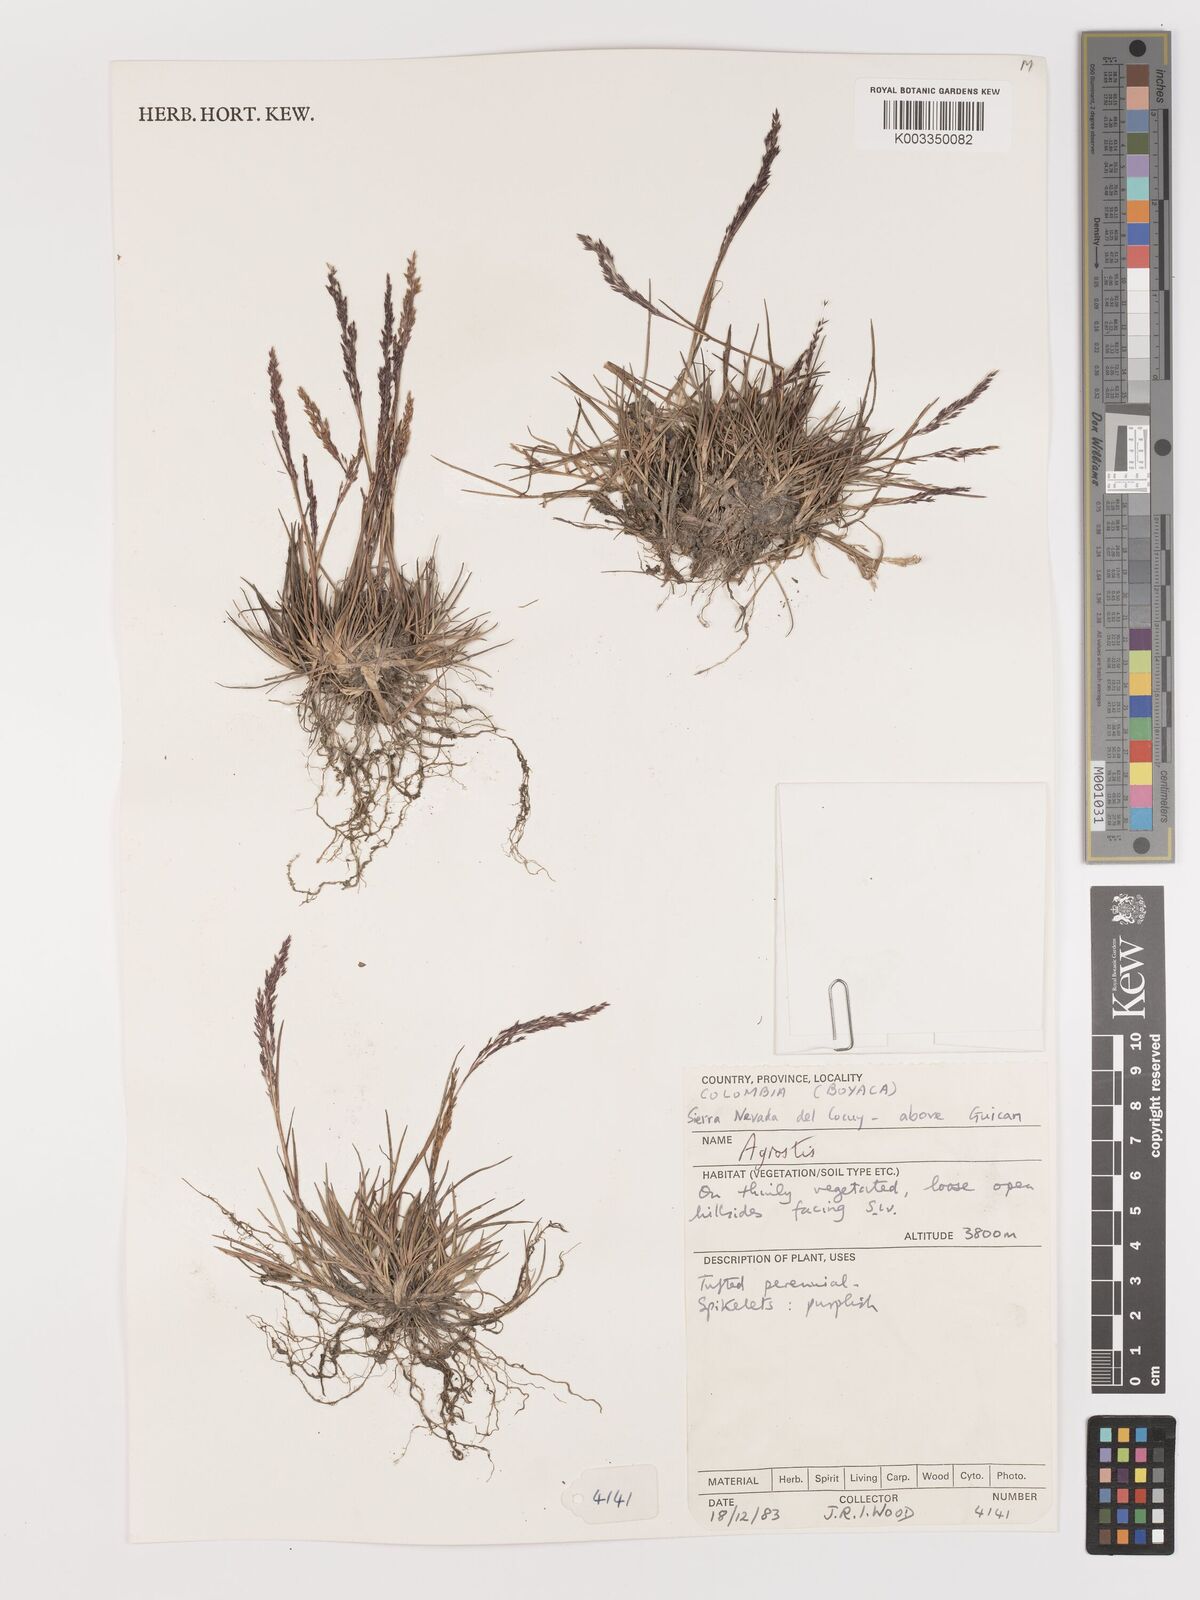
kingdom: Plantae
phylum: Tracheophyta
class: Liliopsida
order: Poales
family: Poaceae
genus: Agrostis
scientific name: Agrostis
